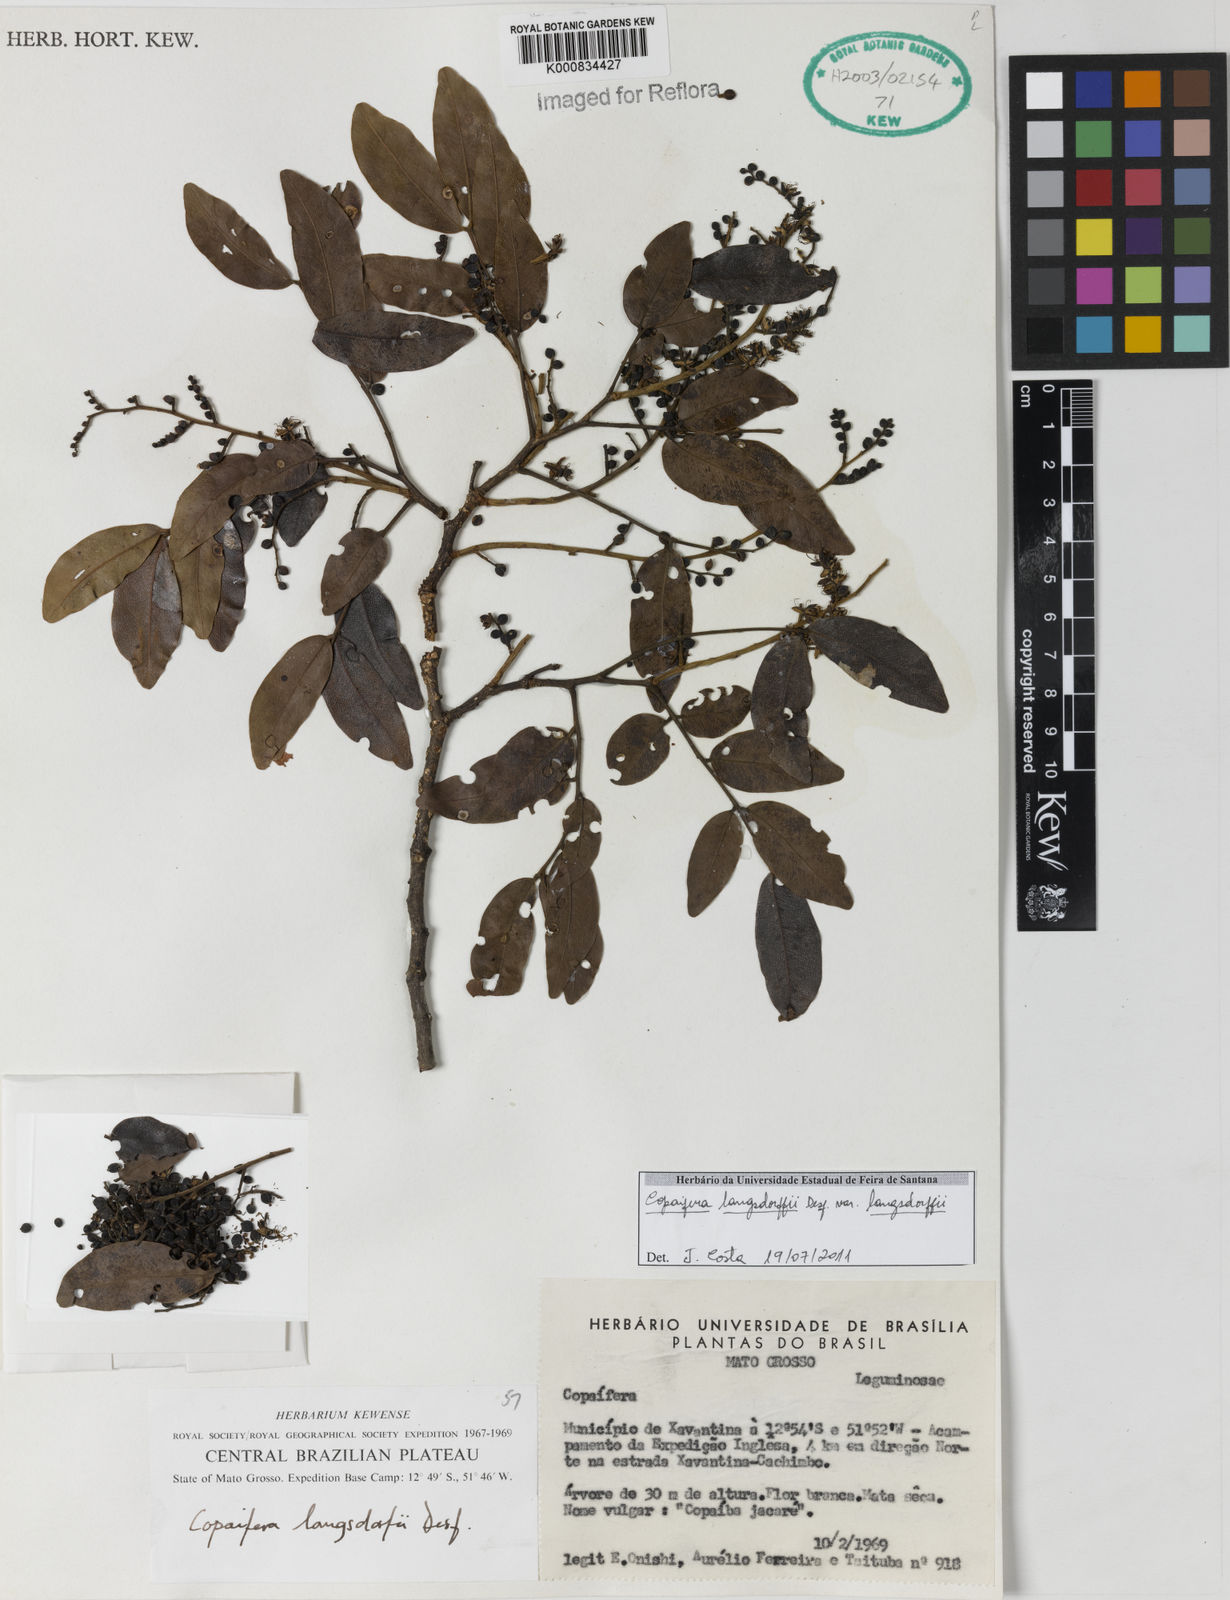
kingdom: Plantae
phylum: Tracheophyta
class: Magnoliopsida
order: Fabales
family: Fabaceae
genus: Copaifera
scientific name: Copaifera langsdorffii
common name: Brazilian diesel tree
